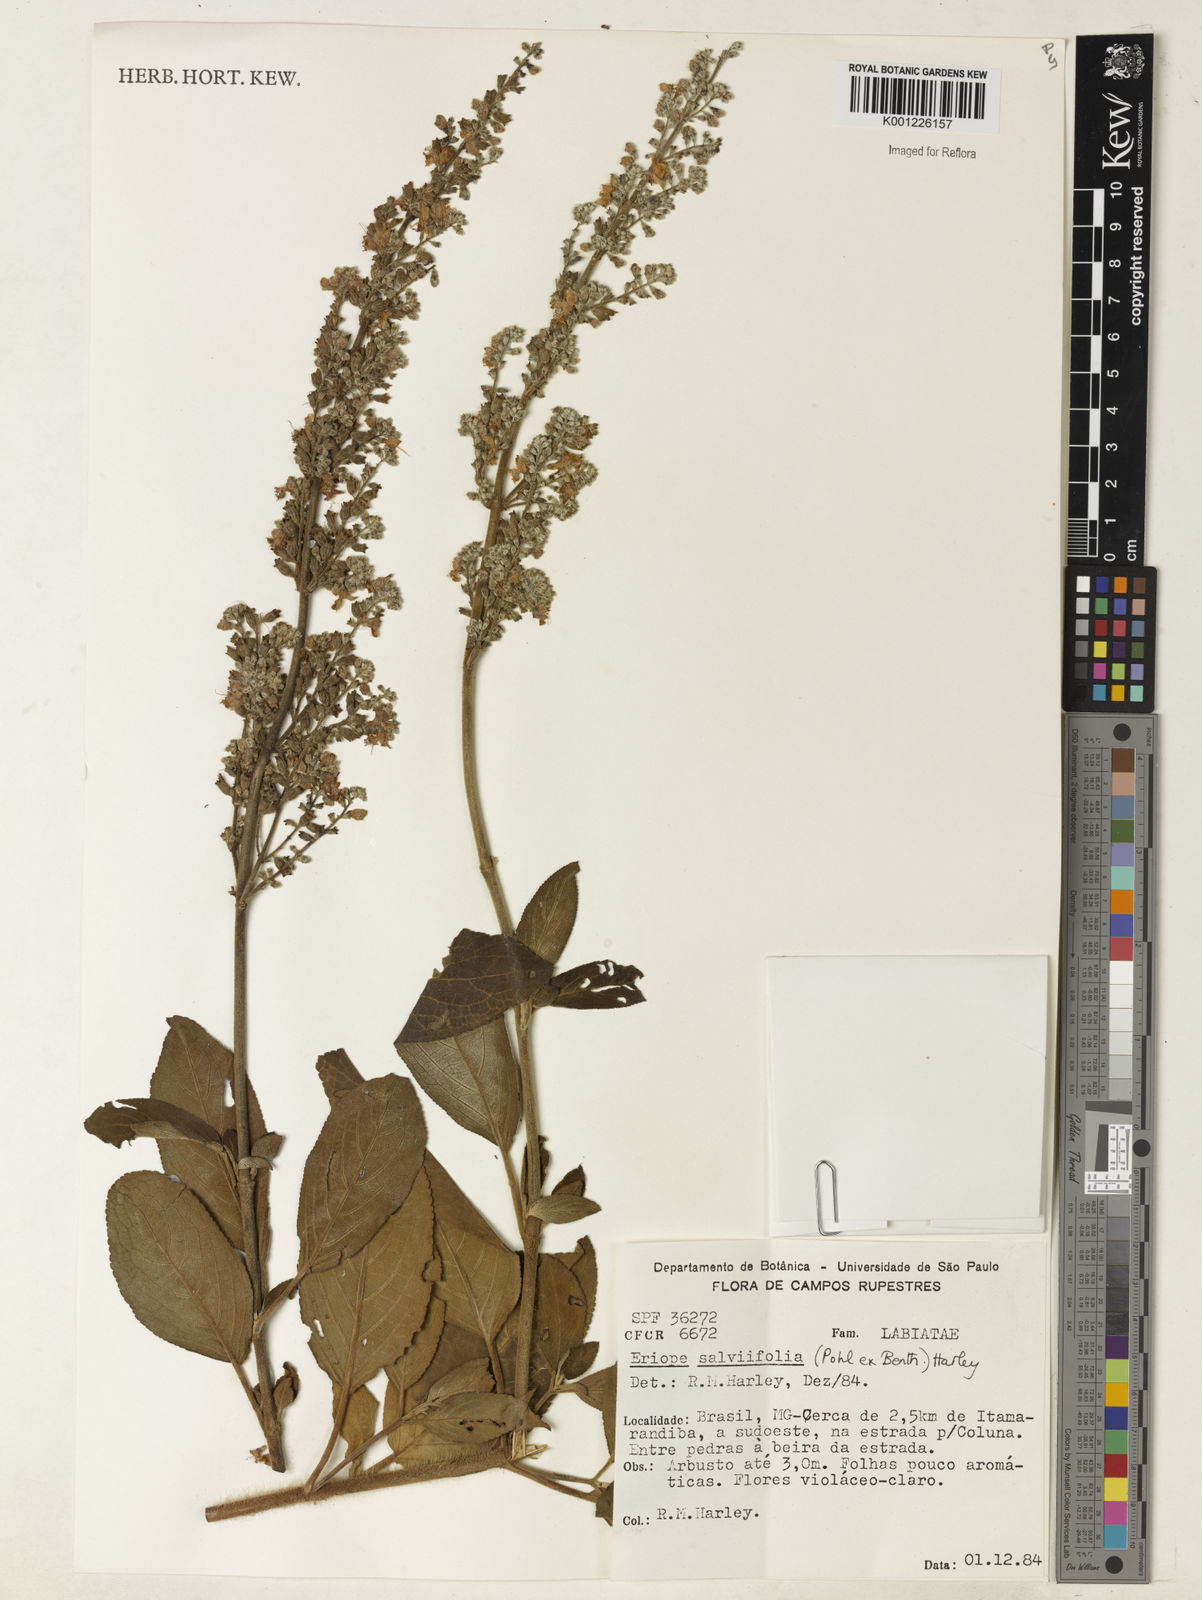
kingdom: Plantae
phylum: Tracheophyta
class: Magnoliopsida
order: Lamiales
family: Lamiaceae
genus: Eriope
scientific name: Eriope salviifolia
